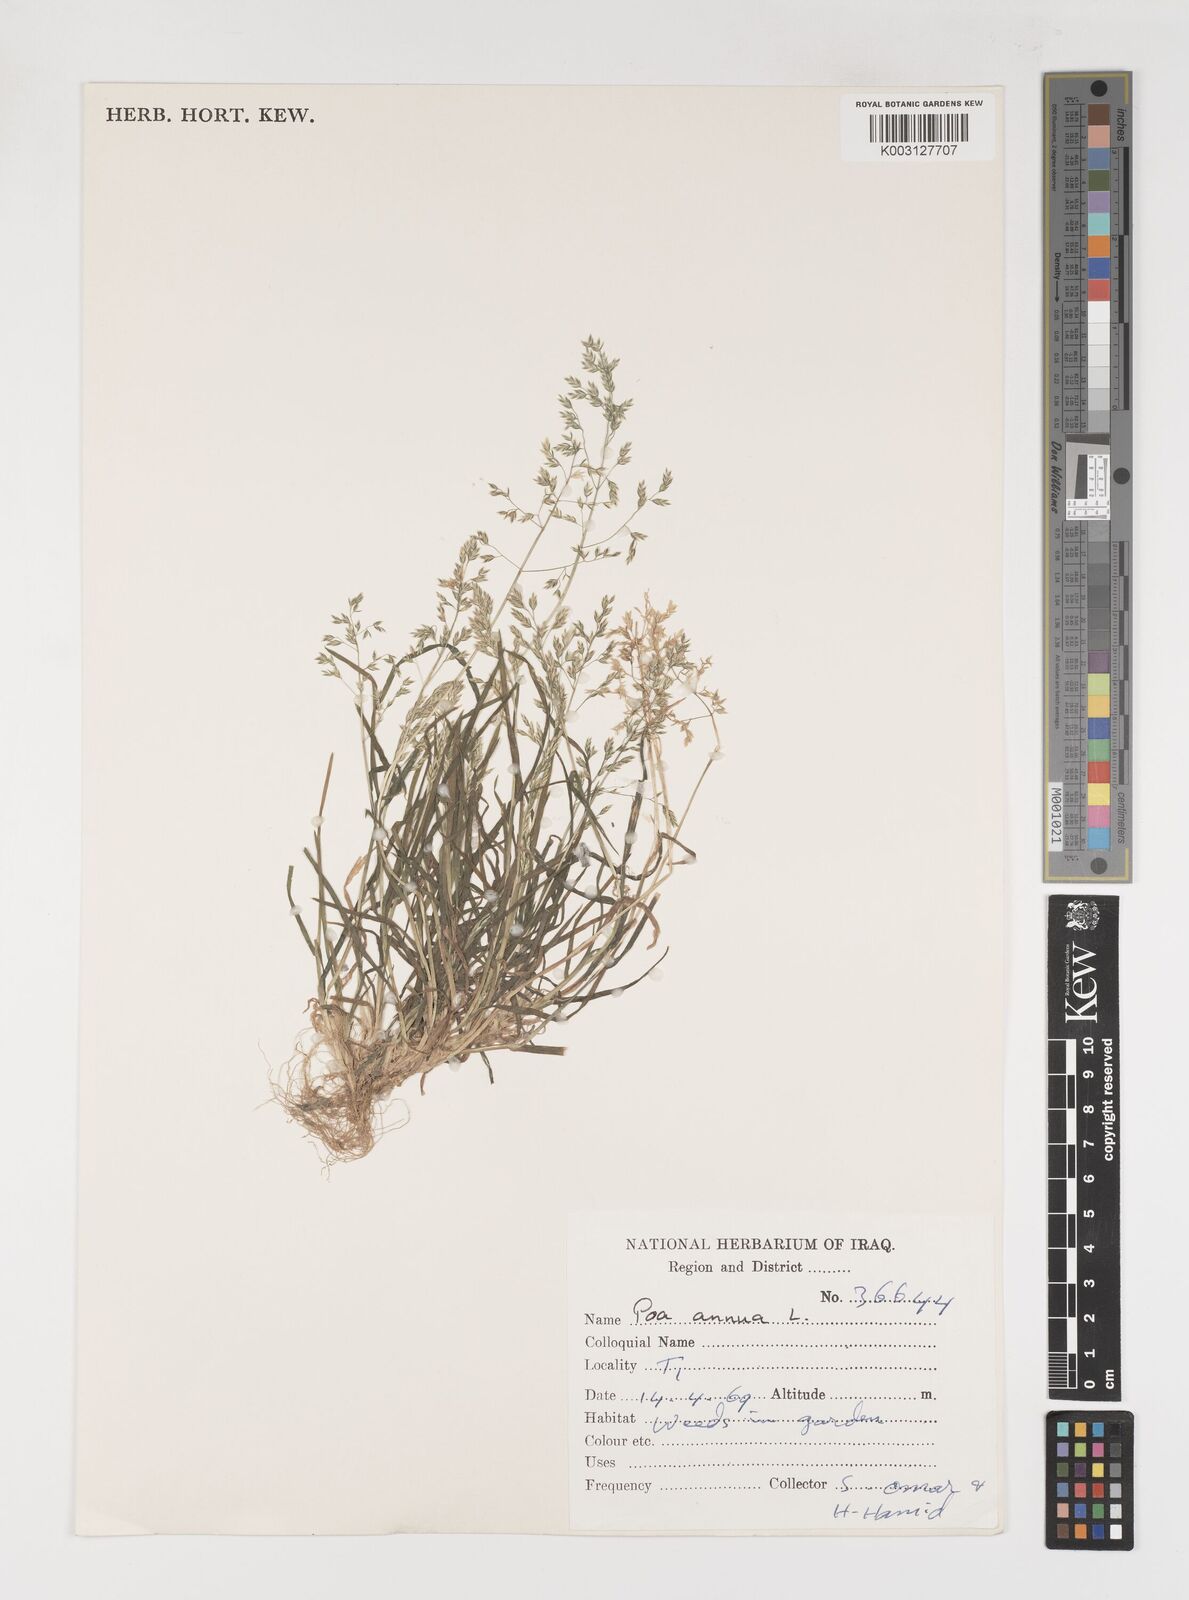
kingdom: Plantae
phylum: Tracheophyta
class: Liliopsida
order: Poales
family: Poaceae
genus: Poa
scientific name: Poa annua
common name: Annual bluegrass
